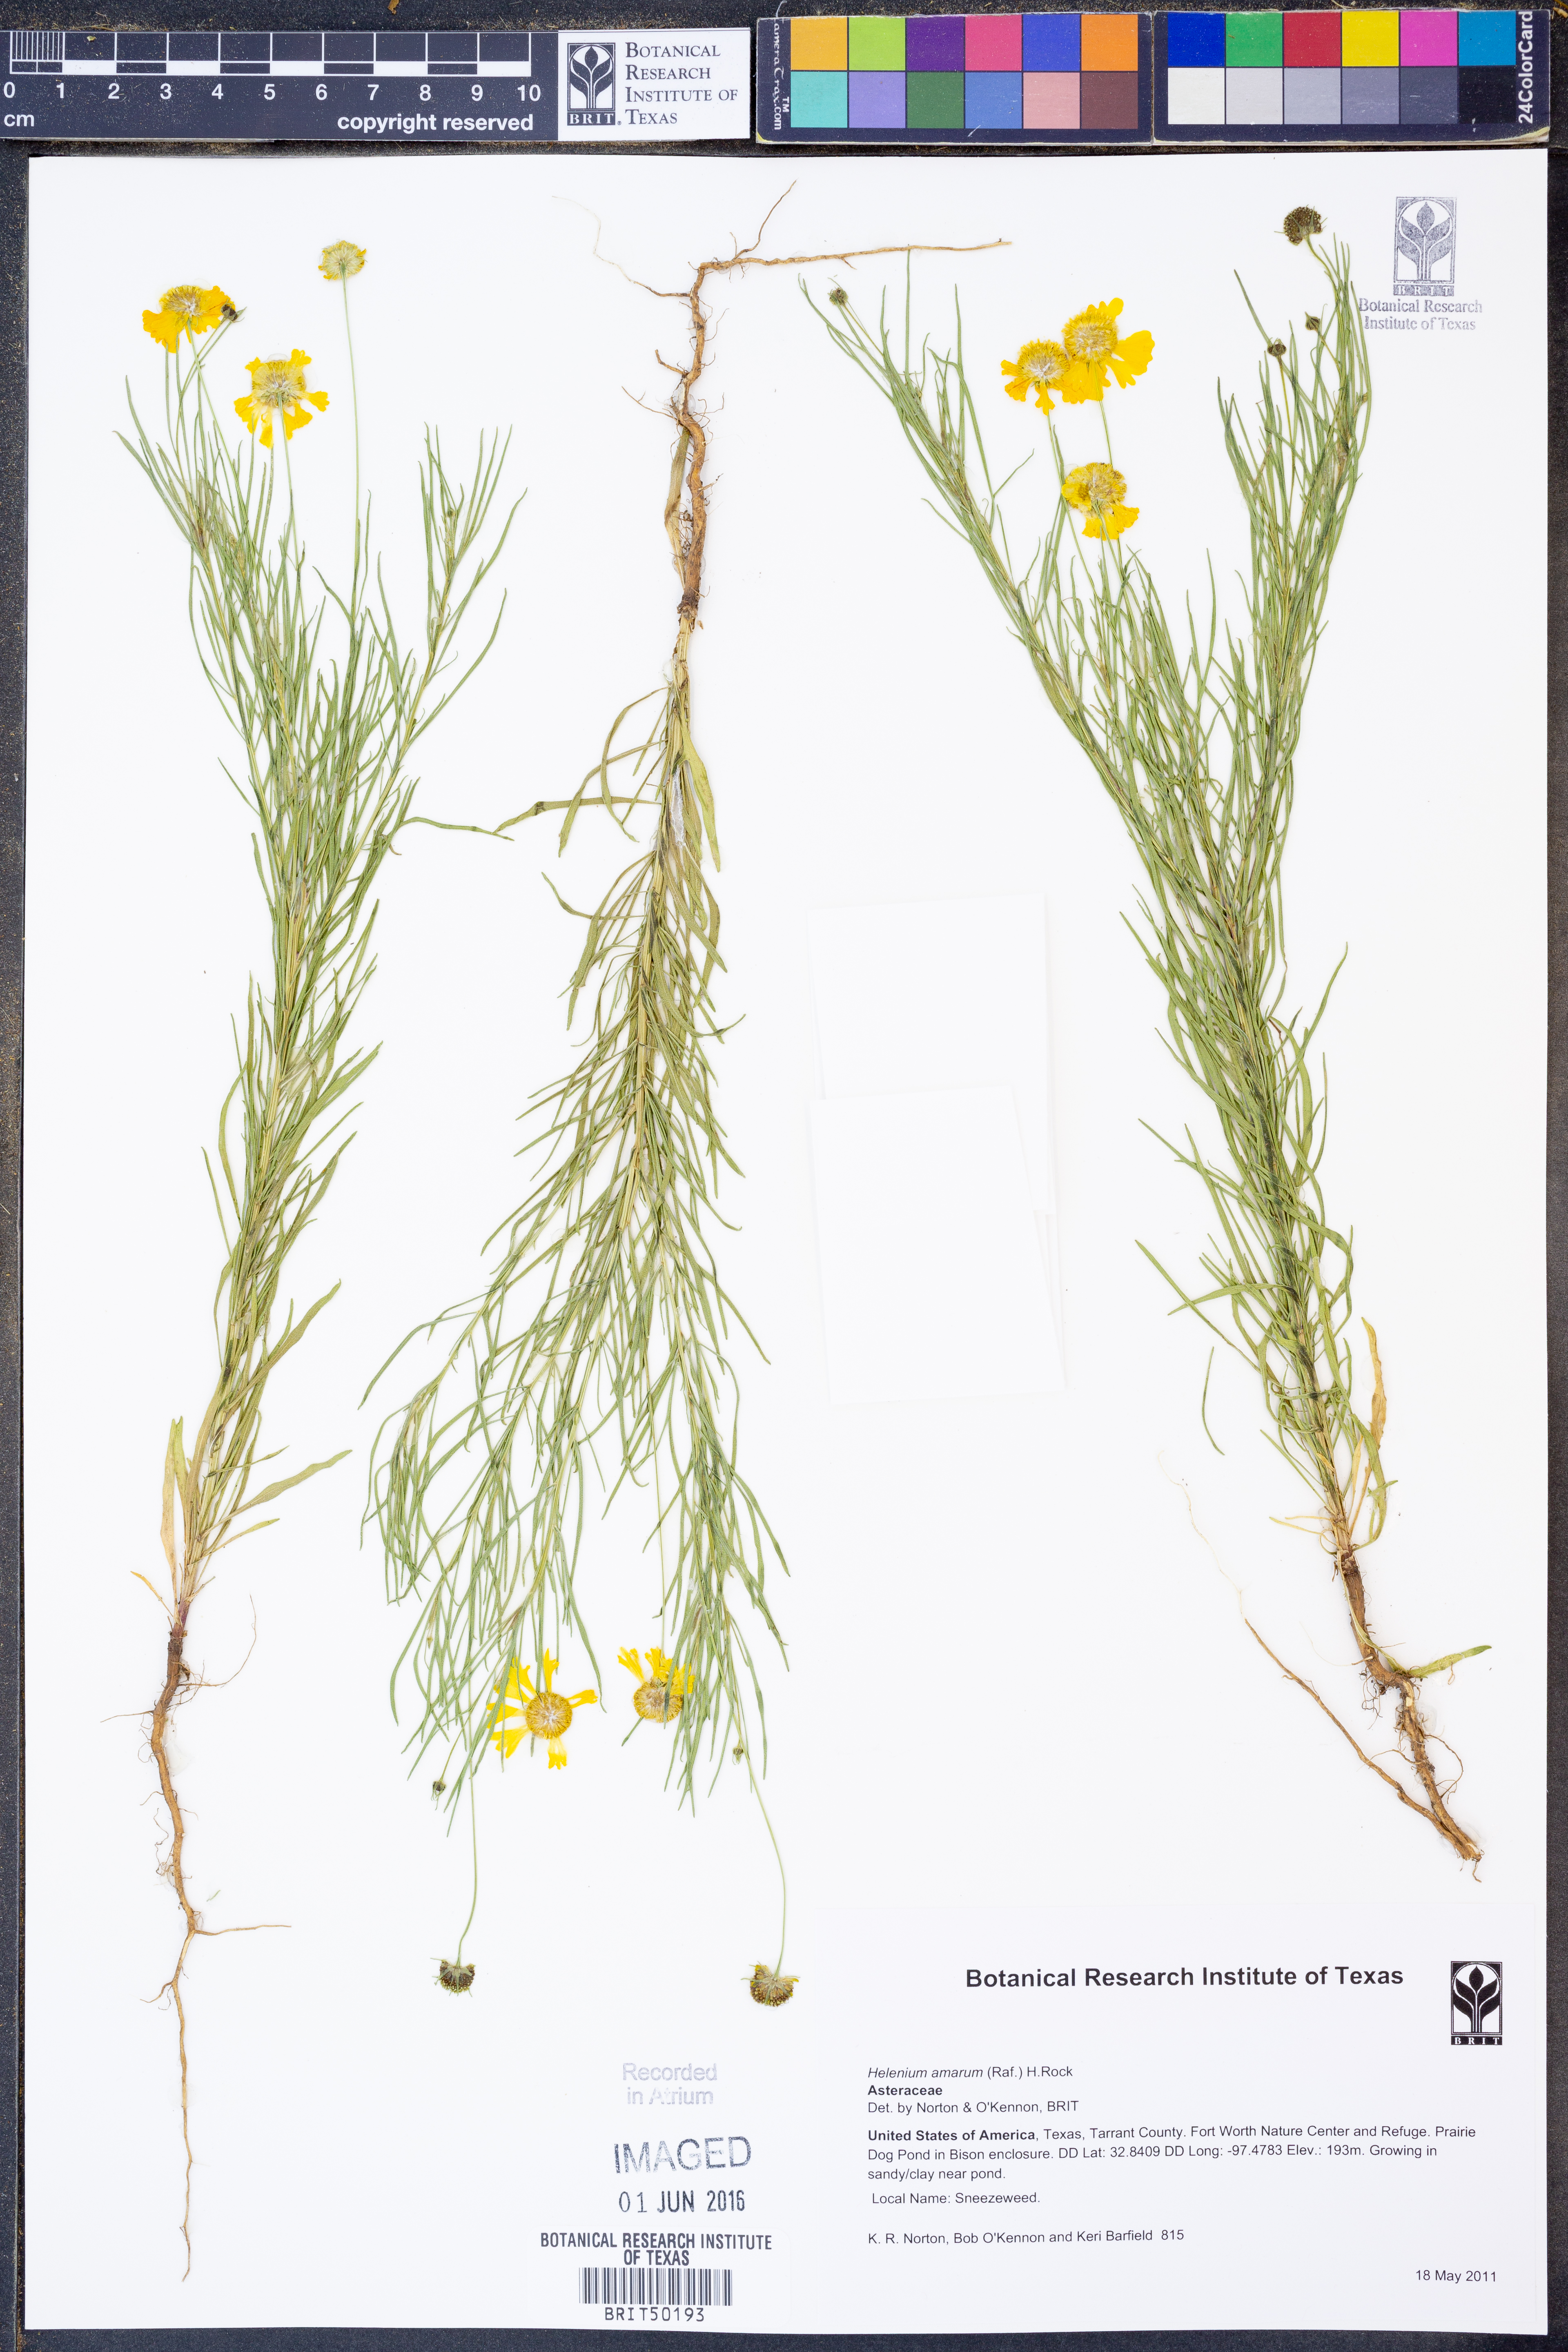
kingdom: Plantae
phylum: Tracheophyta
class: Magnoliopsida
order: Asterales
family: Asteraceae
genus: Helenium
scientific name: Helenium amarum
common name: Bitter sneezeweed
